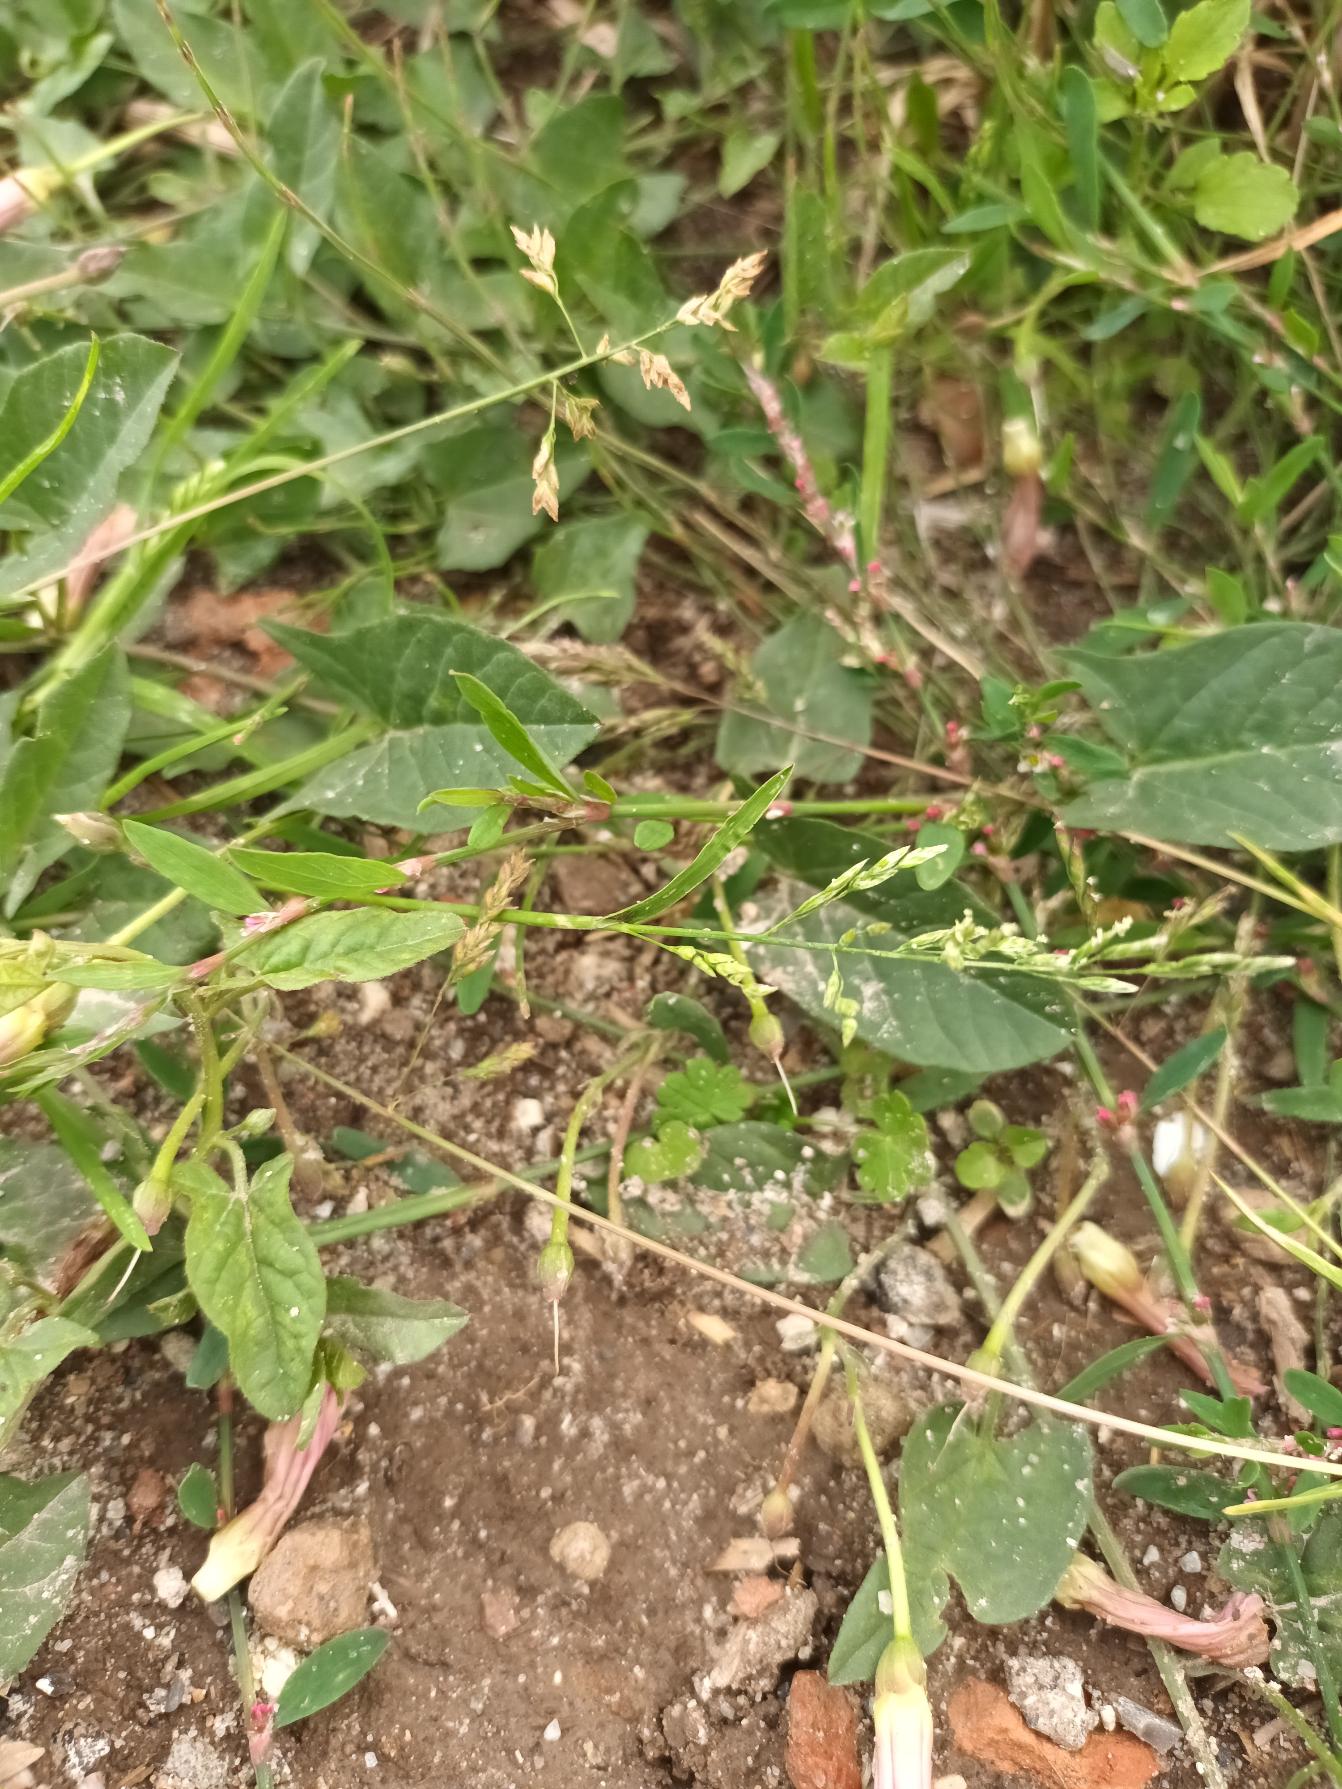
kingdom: Plantae
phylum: Tracheophyta
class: Liliopsida
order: Poales
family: Poaceae
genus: Poa
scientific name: Poa annua
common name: Enårig rapgræs
